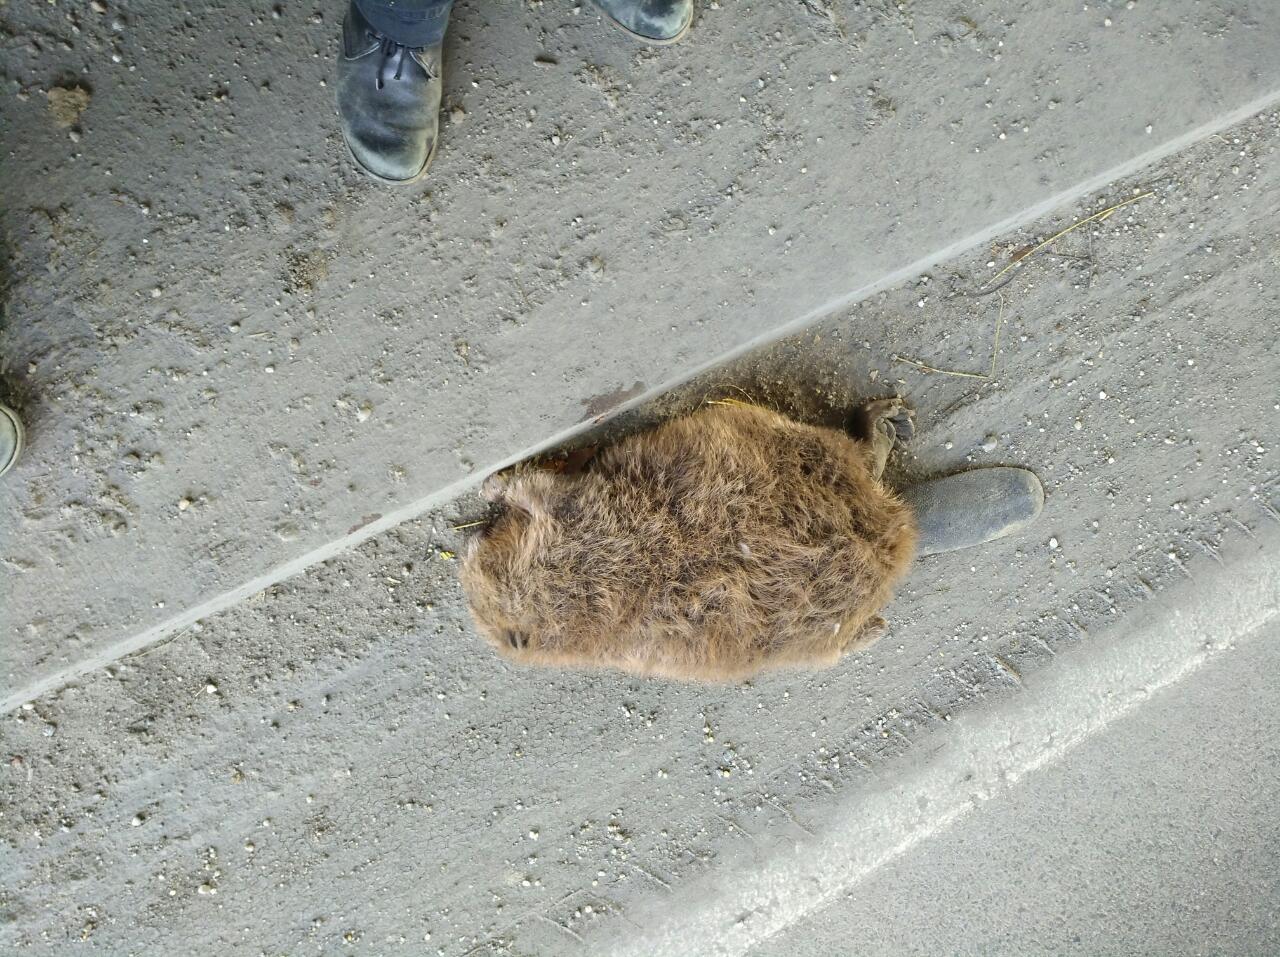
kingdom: Animalia
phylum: Chordata
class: Mammalia
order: Rodentia
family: Castoridae
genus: Castor
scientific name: Castor fiber
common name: Eurasian beaver
